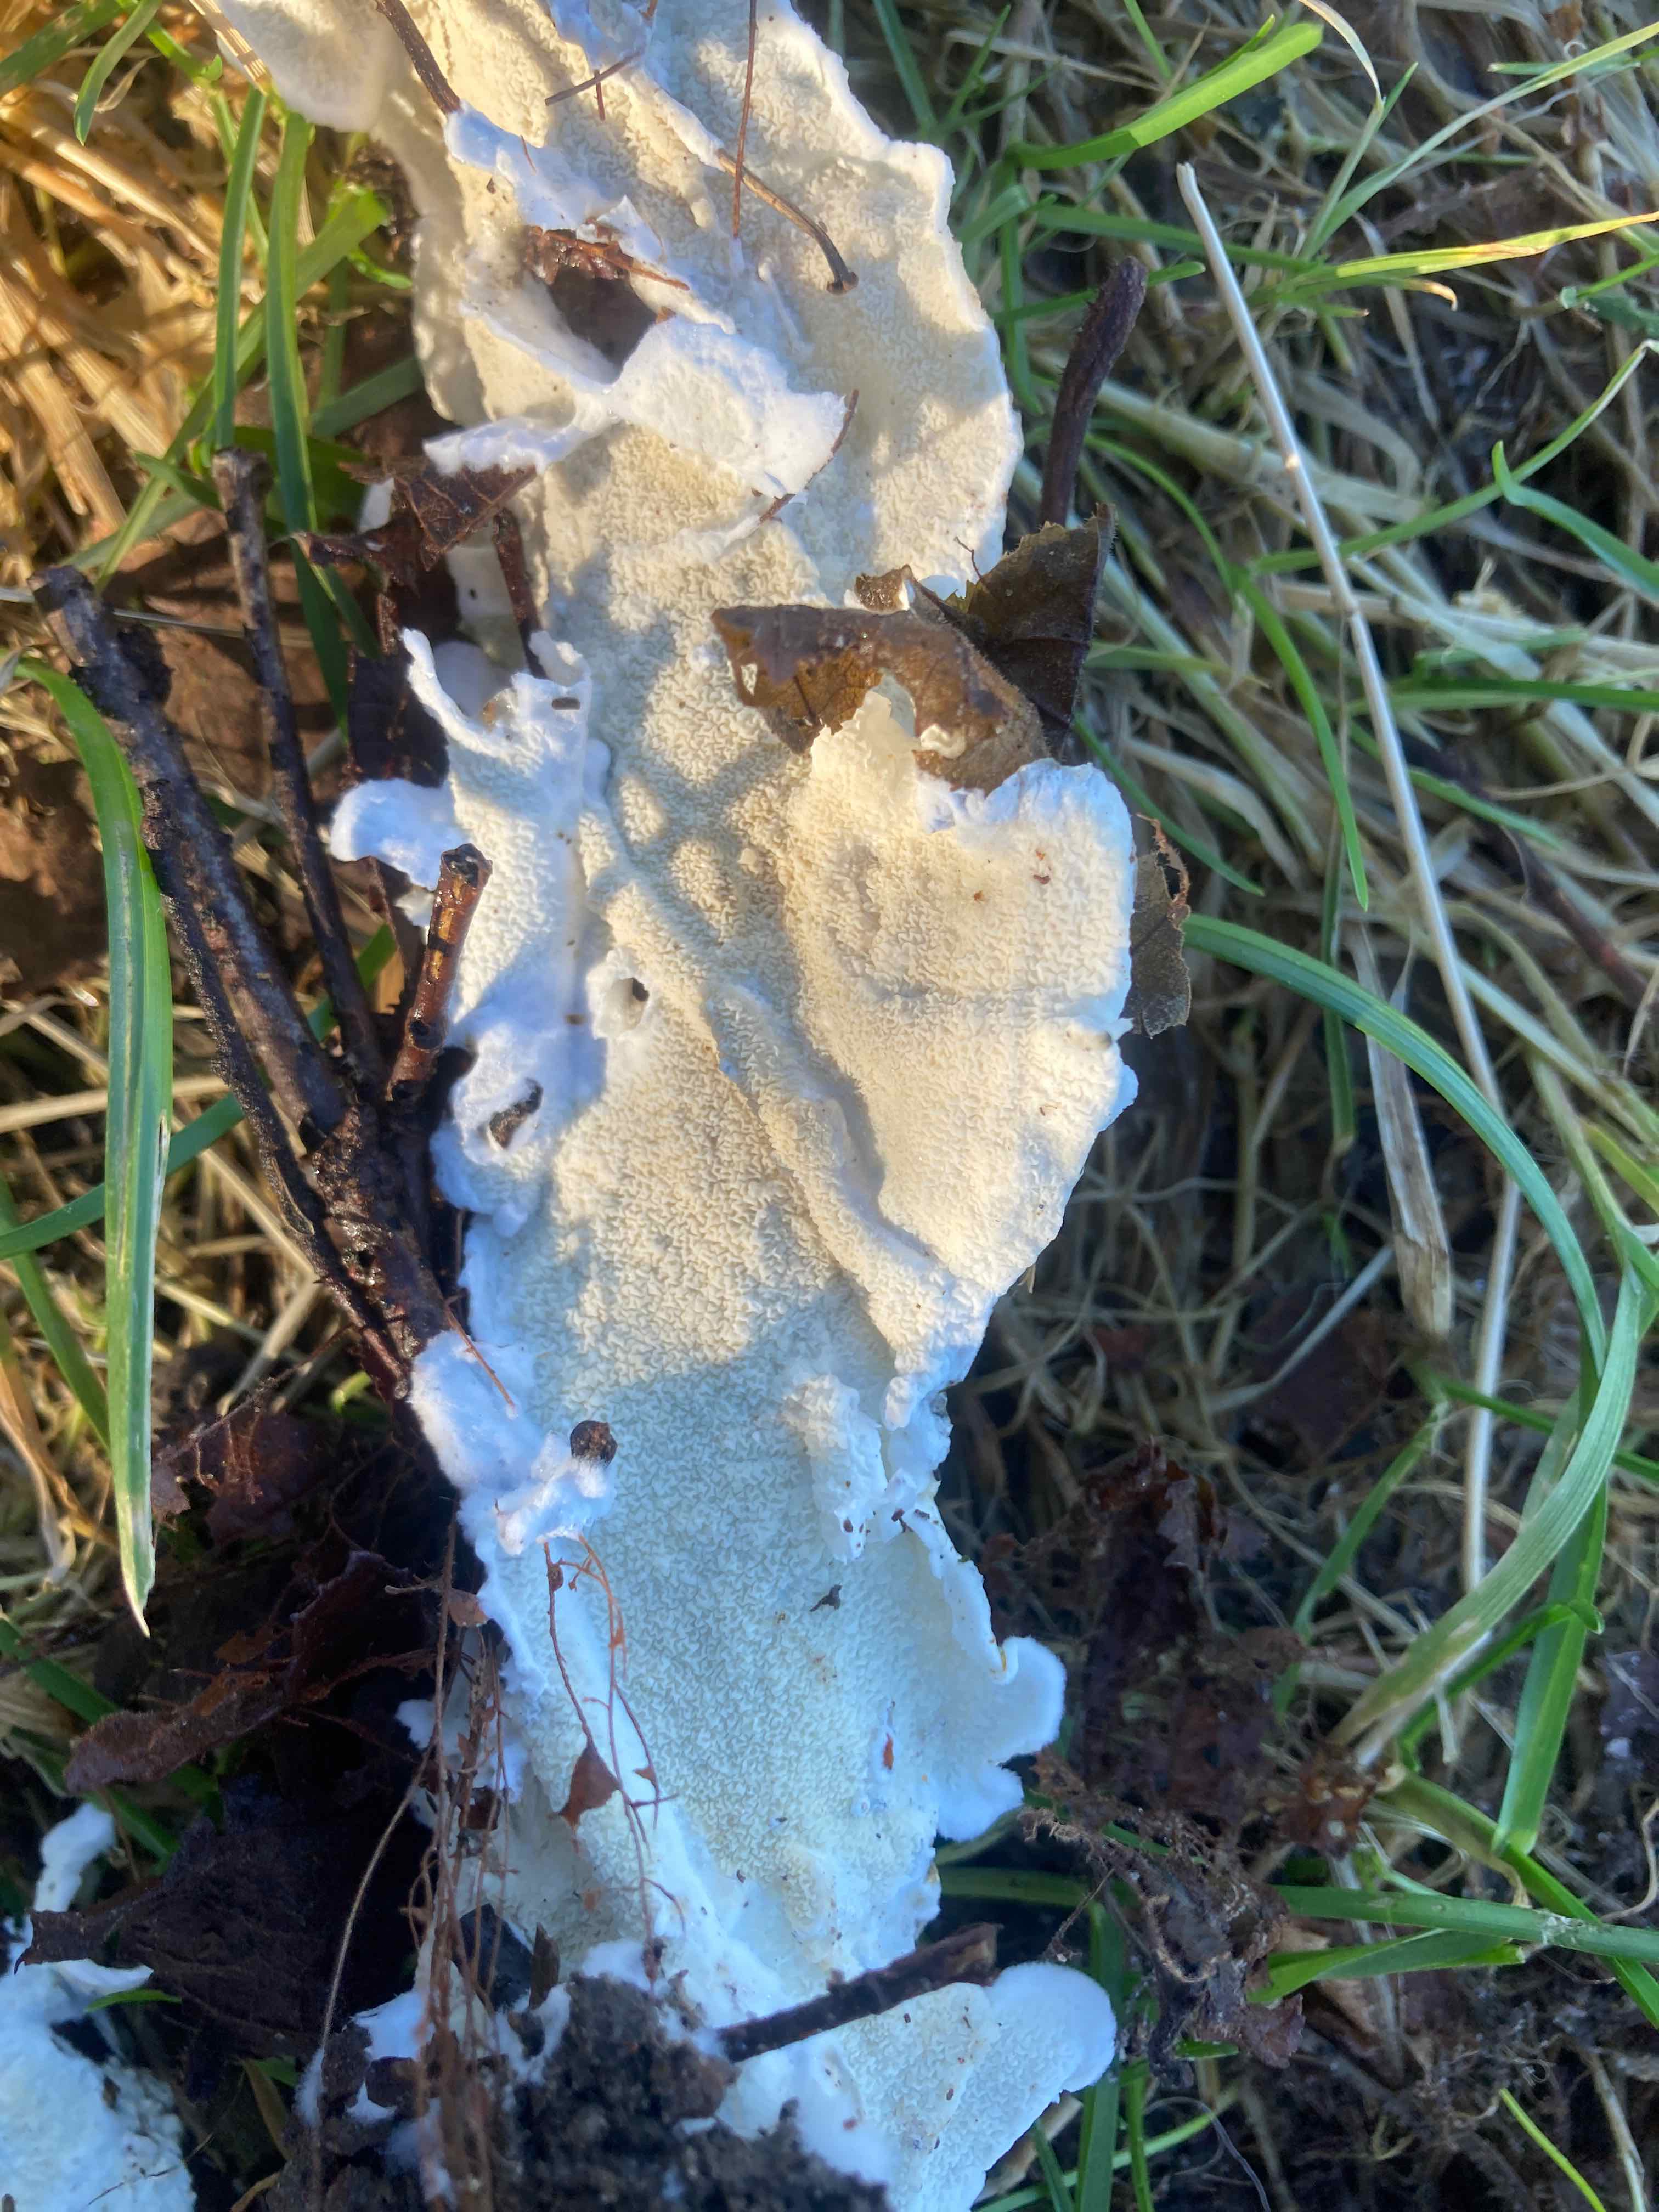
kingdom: Fungi
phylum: Basidiomycota
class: Agaricomycetes
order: Polyporales
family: Irpicaceae
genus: Byssomerulius
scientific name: Byssomerulius corium
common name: læder-åresvamp
